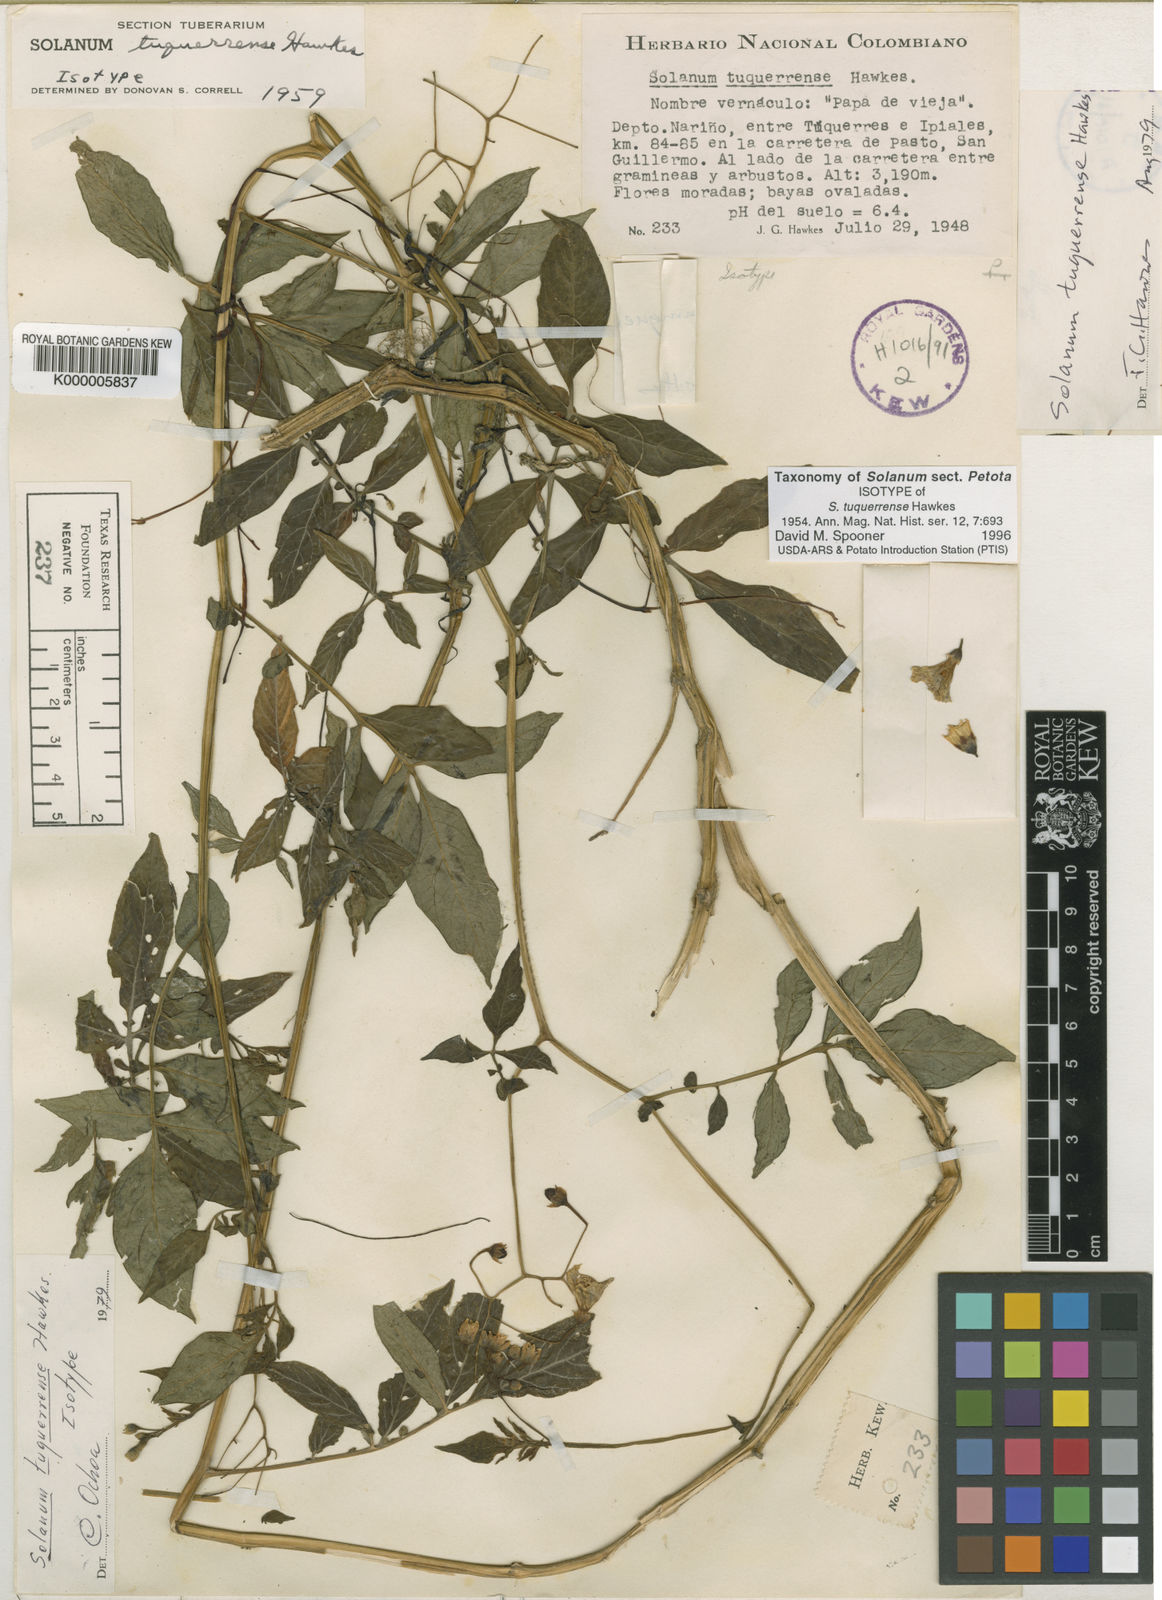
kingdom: Plantae
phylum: Tracheophyta
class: Magnoliopsida
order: Solanales
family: Solanaceae
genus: Solanum
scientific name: Solanum andreanum
